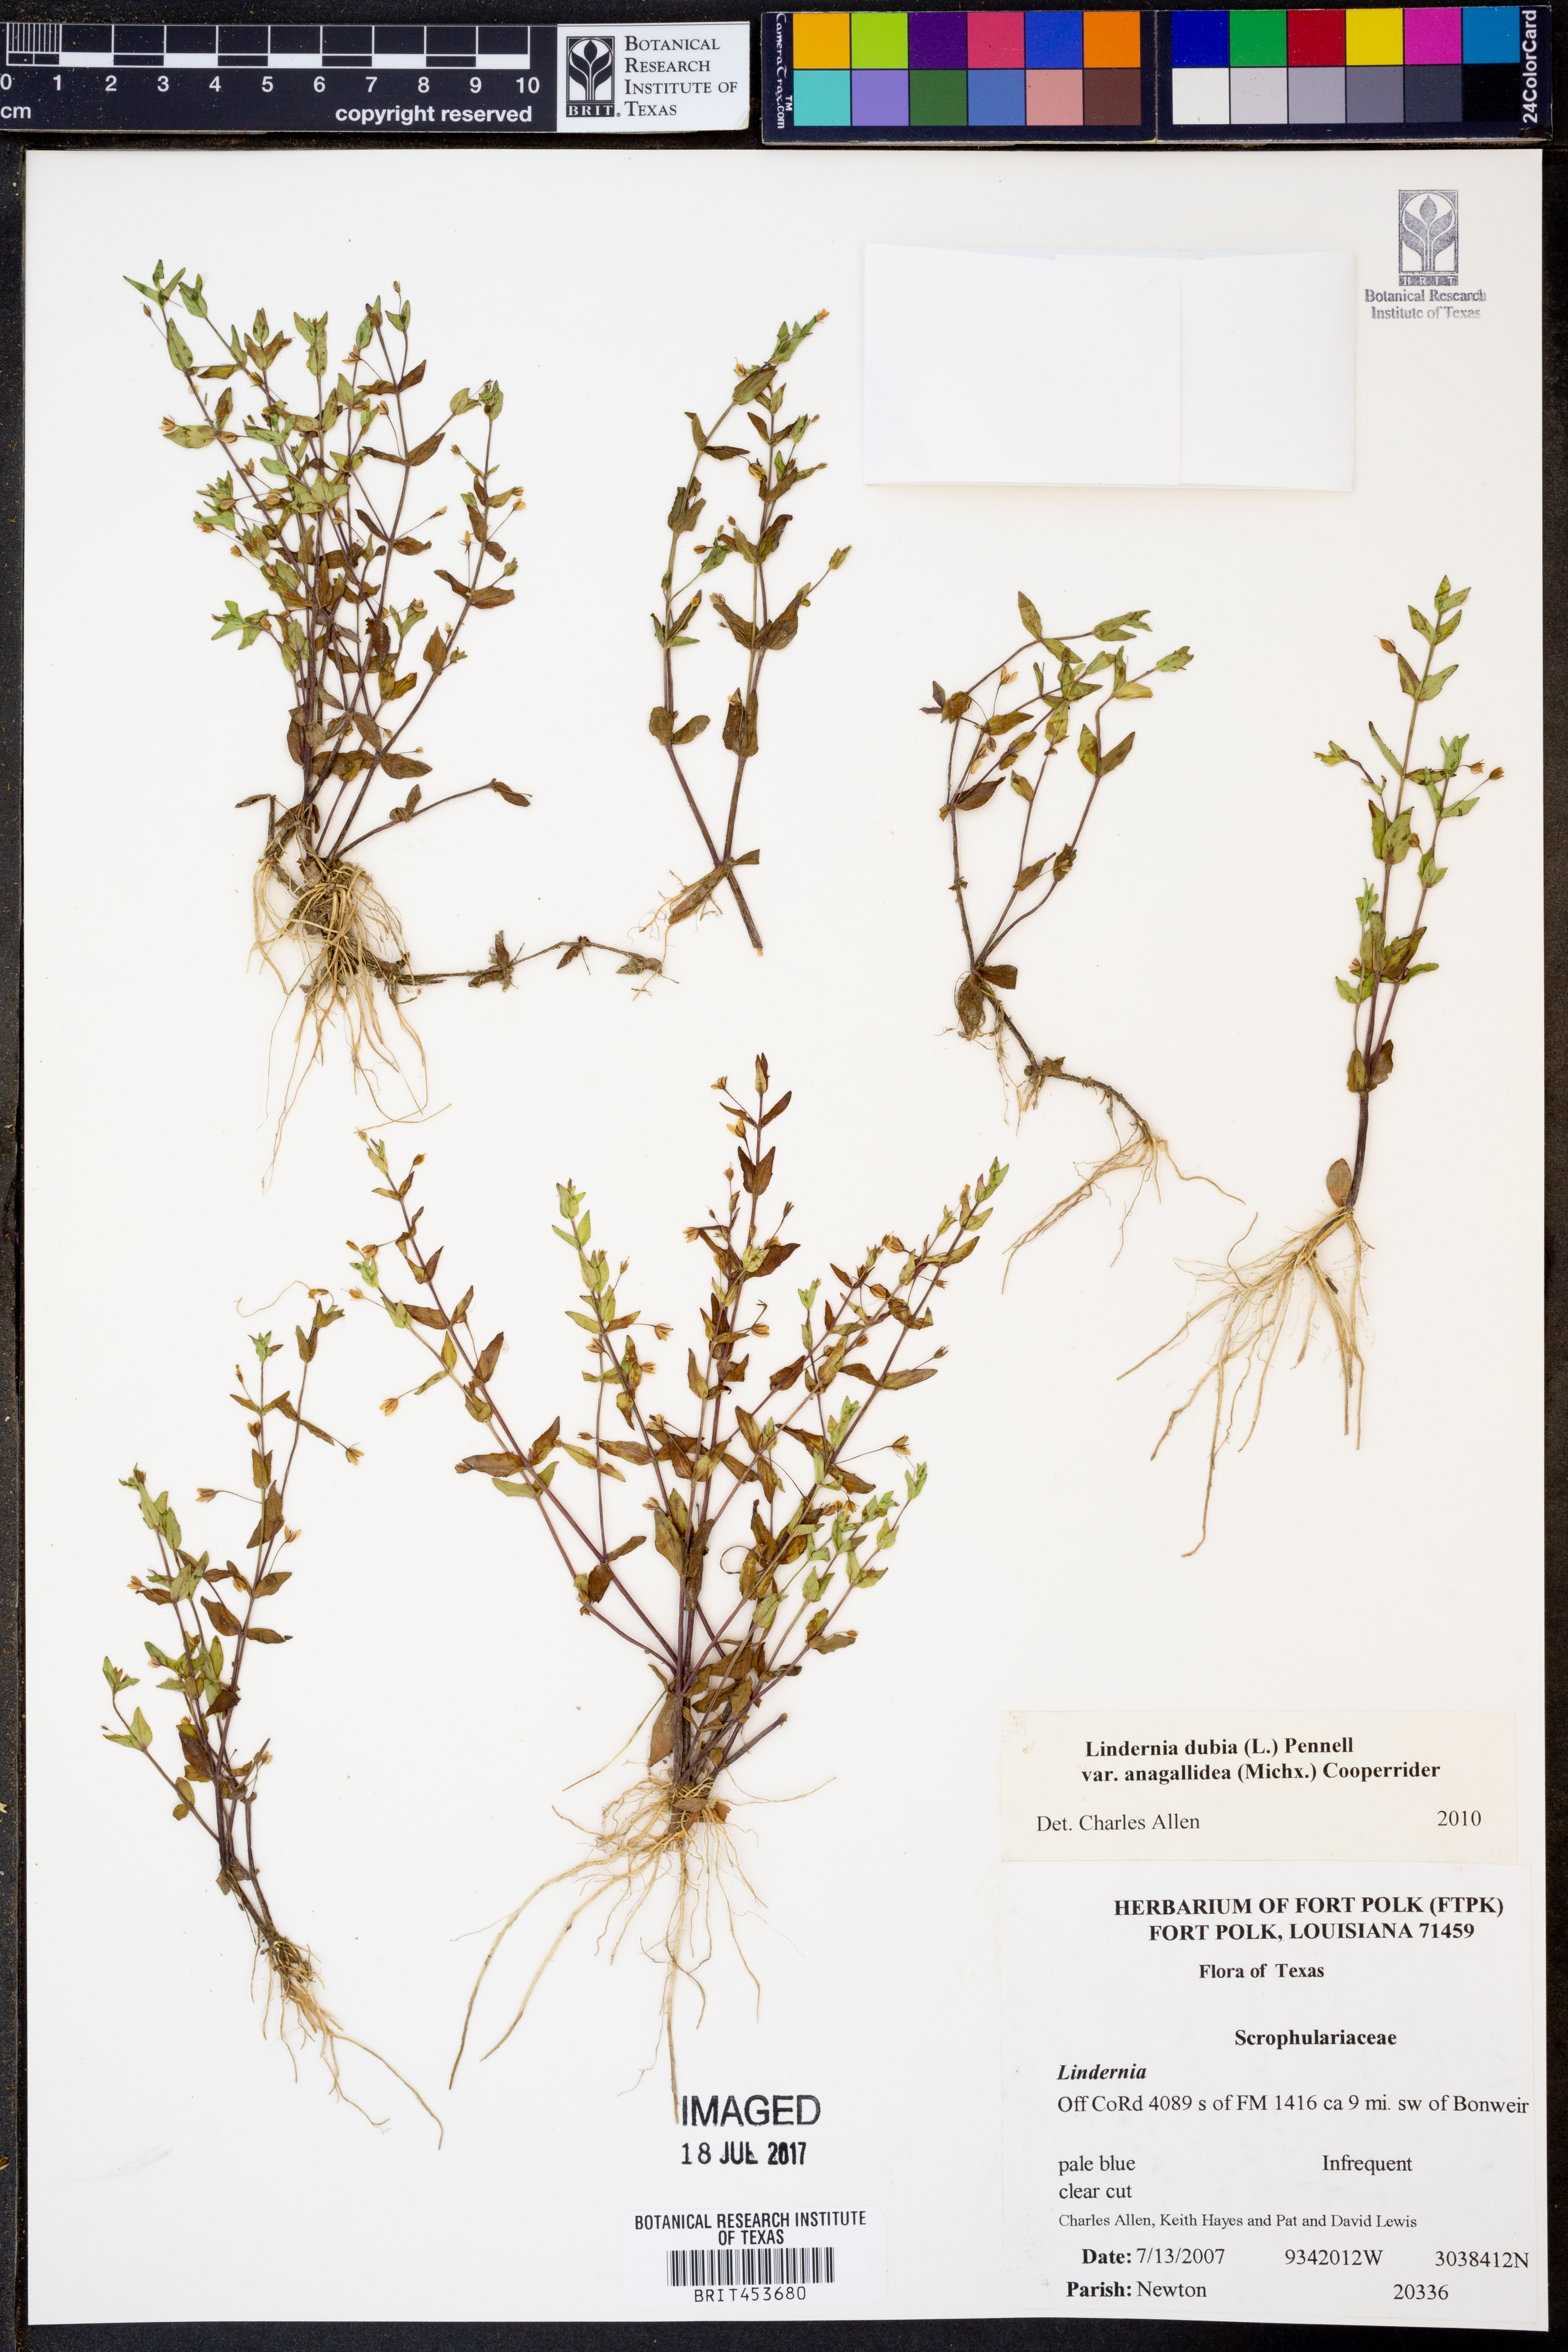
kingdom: Plantae
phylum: Tracheophyta
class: Magnoliopsida
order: Lamiales
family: Linderniaceae
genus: Lindernia
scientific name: Lindernia dubia
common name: Annual false pimpernel
